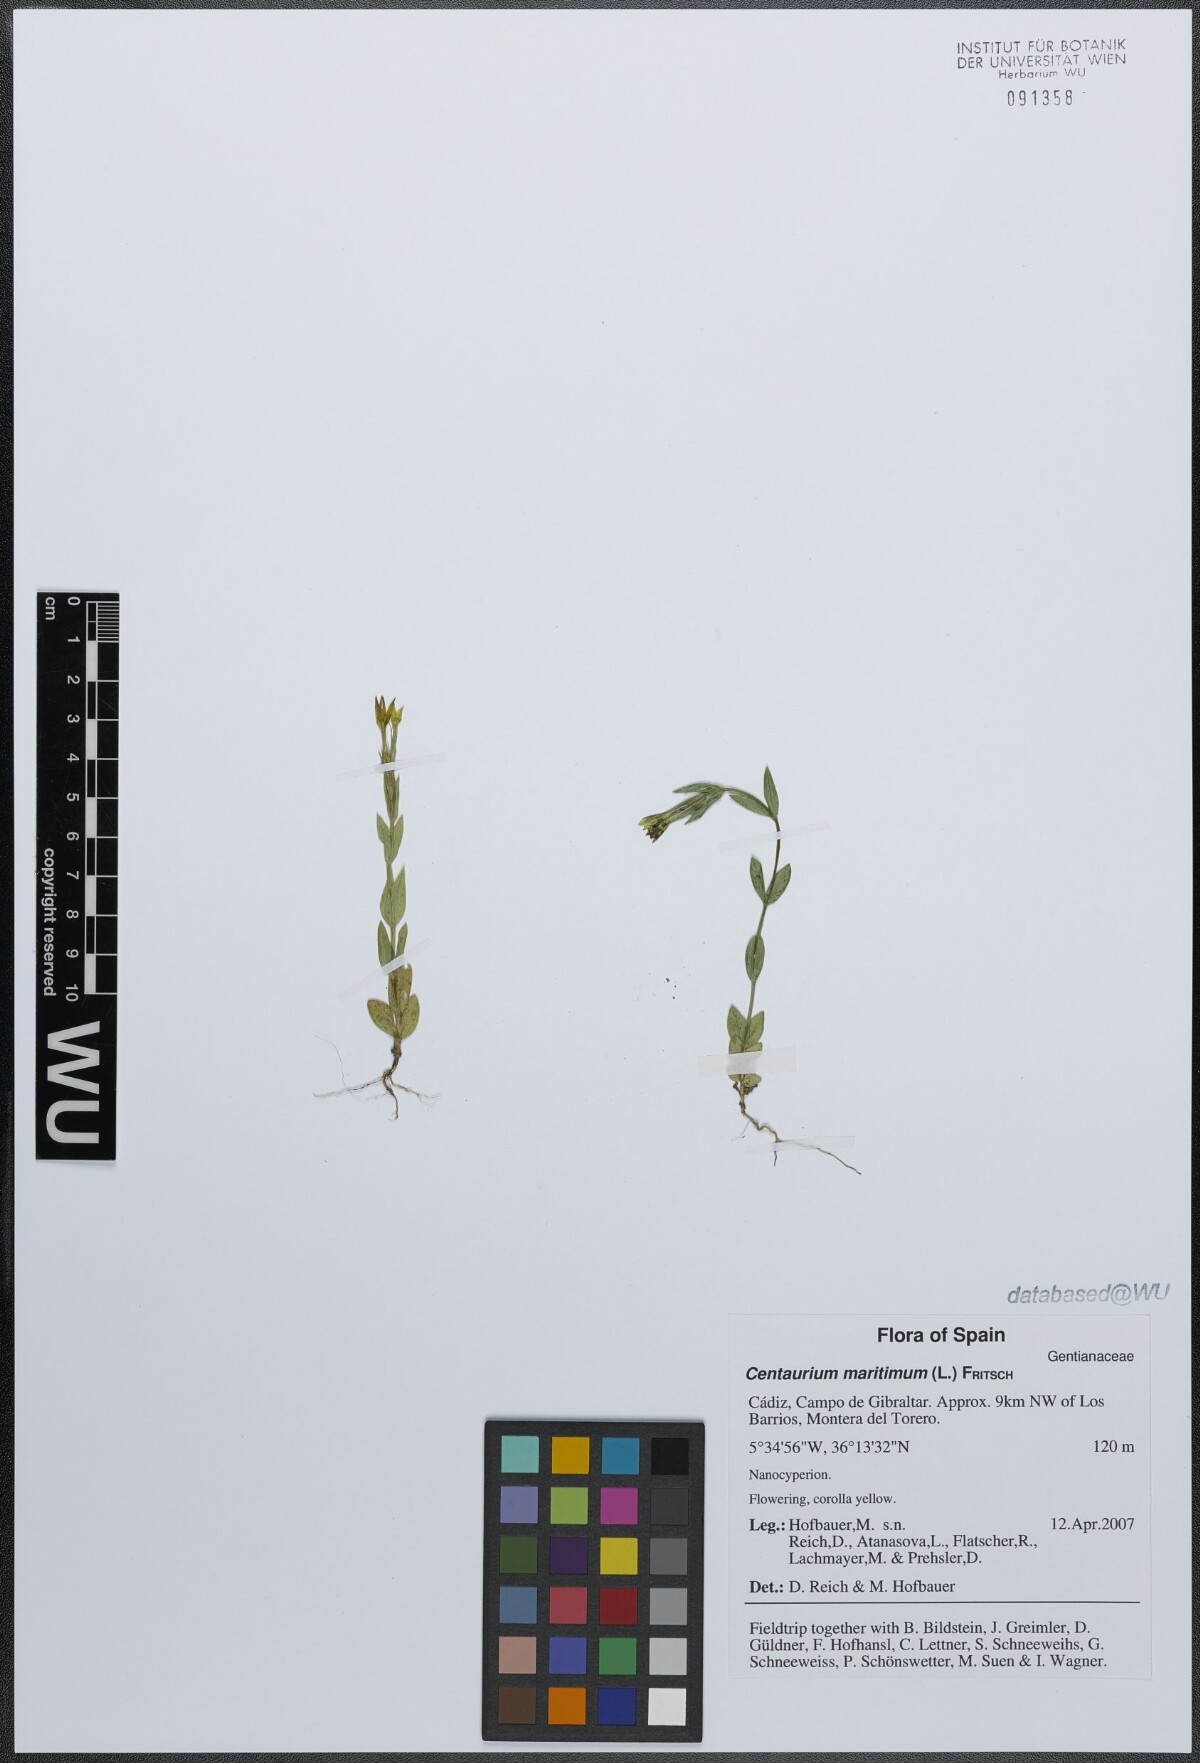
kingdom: Plantae
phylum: Tracheophyta
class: Magnoliopsida
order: Gentianales
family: Gentianaceae
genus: Centaurium
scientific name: Centaurium maritimum
